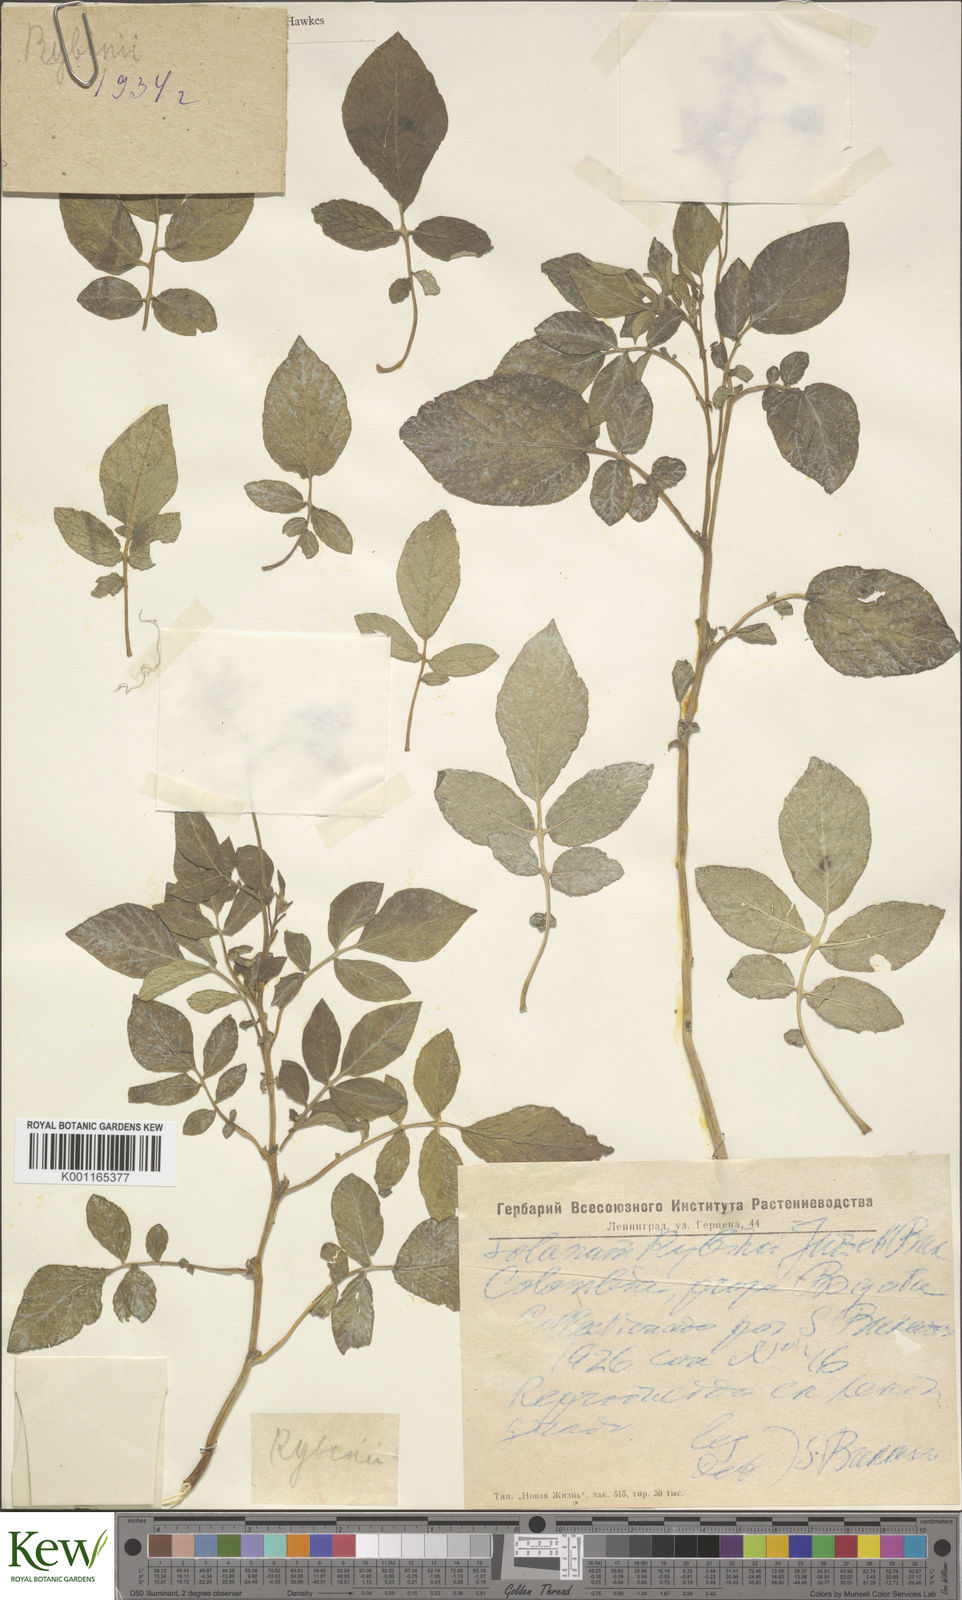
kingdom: Plantae
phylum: Tracheophyta
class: Magnoliopsida
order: Solanales
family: Solanaceae
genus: Solanum
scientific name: Solanum tuberosum
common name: Potato
